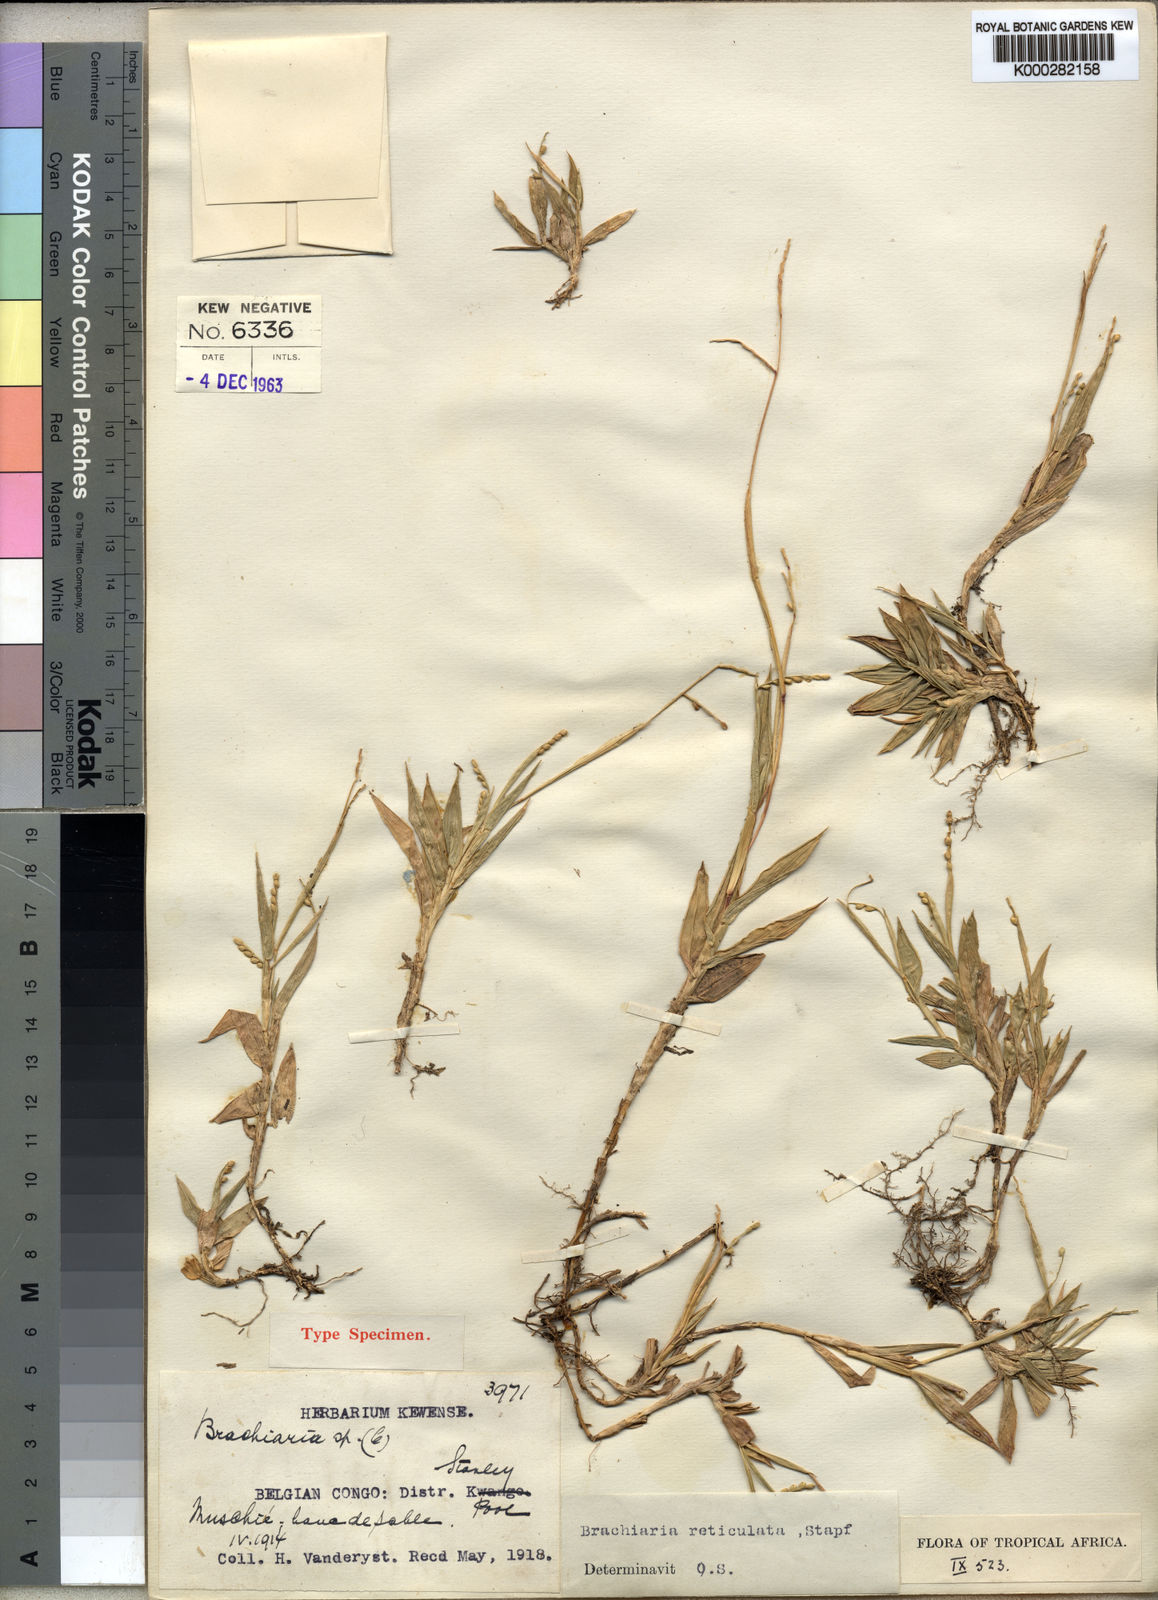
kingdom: Plantae
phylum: Tracheophyta
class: Liliopsida
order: Poales
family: Poaceae
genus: Urochloa
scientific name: Urochloa reticulata
